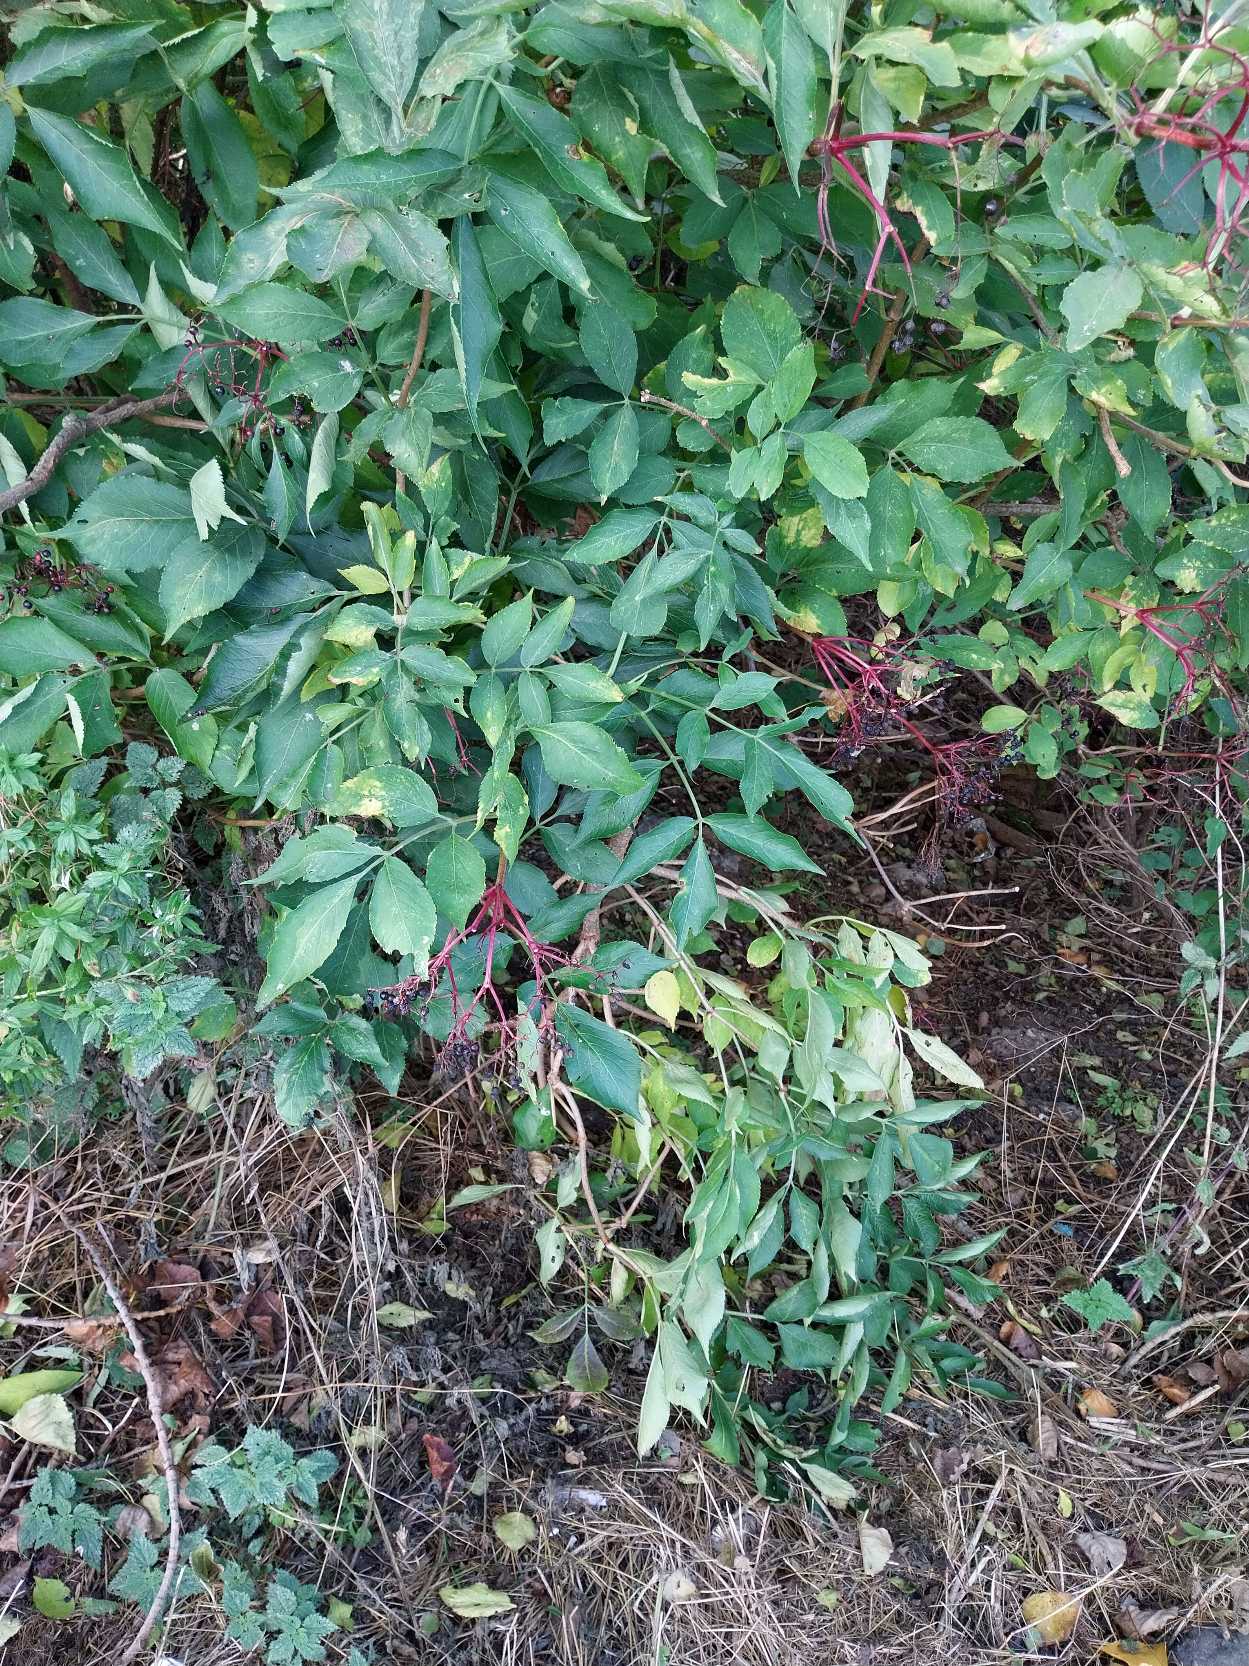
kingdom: Plantae
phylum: Tracheophyta
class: Magnoliopsida
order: Dipsacales
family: Viburnaceae
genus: Sambucus
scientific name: Sambucus nigra
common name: Almindelig hyld
